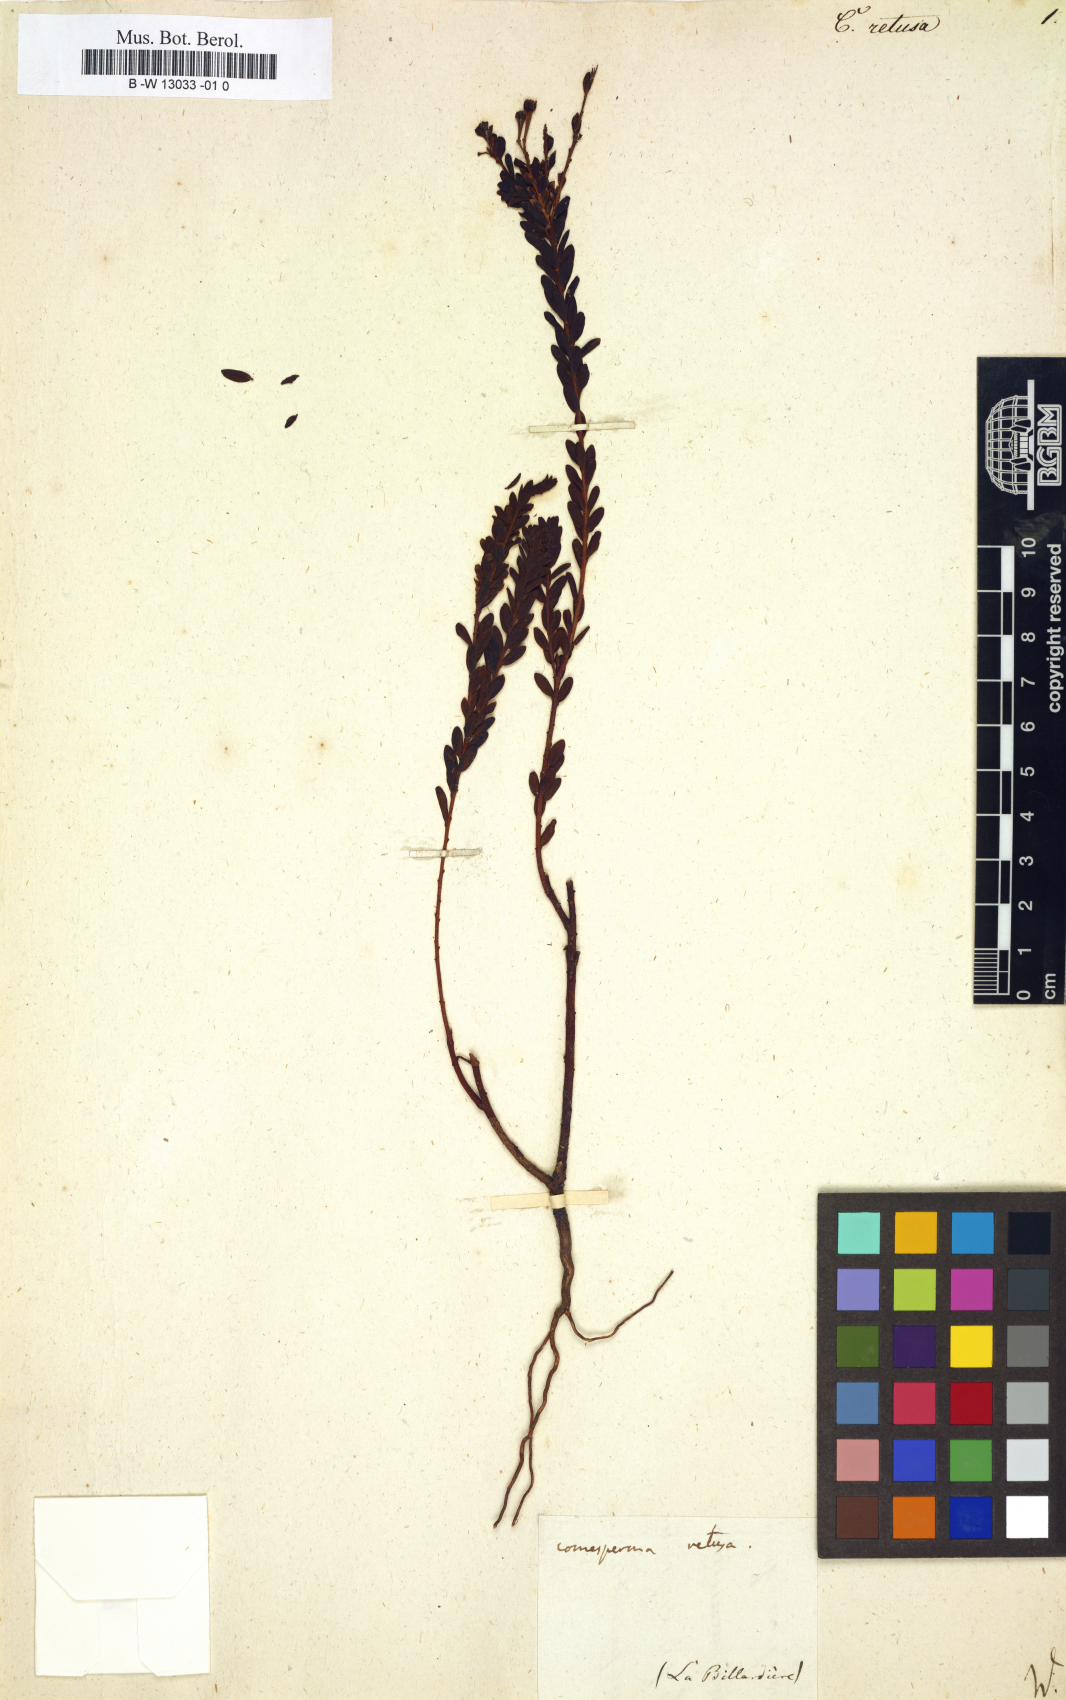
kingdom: Plantae
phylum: Tracheophyta
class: Magnoliopsida
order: Fabales
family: Polygalaceae
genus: Comesperma
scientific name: Comesperma retusum
